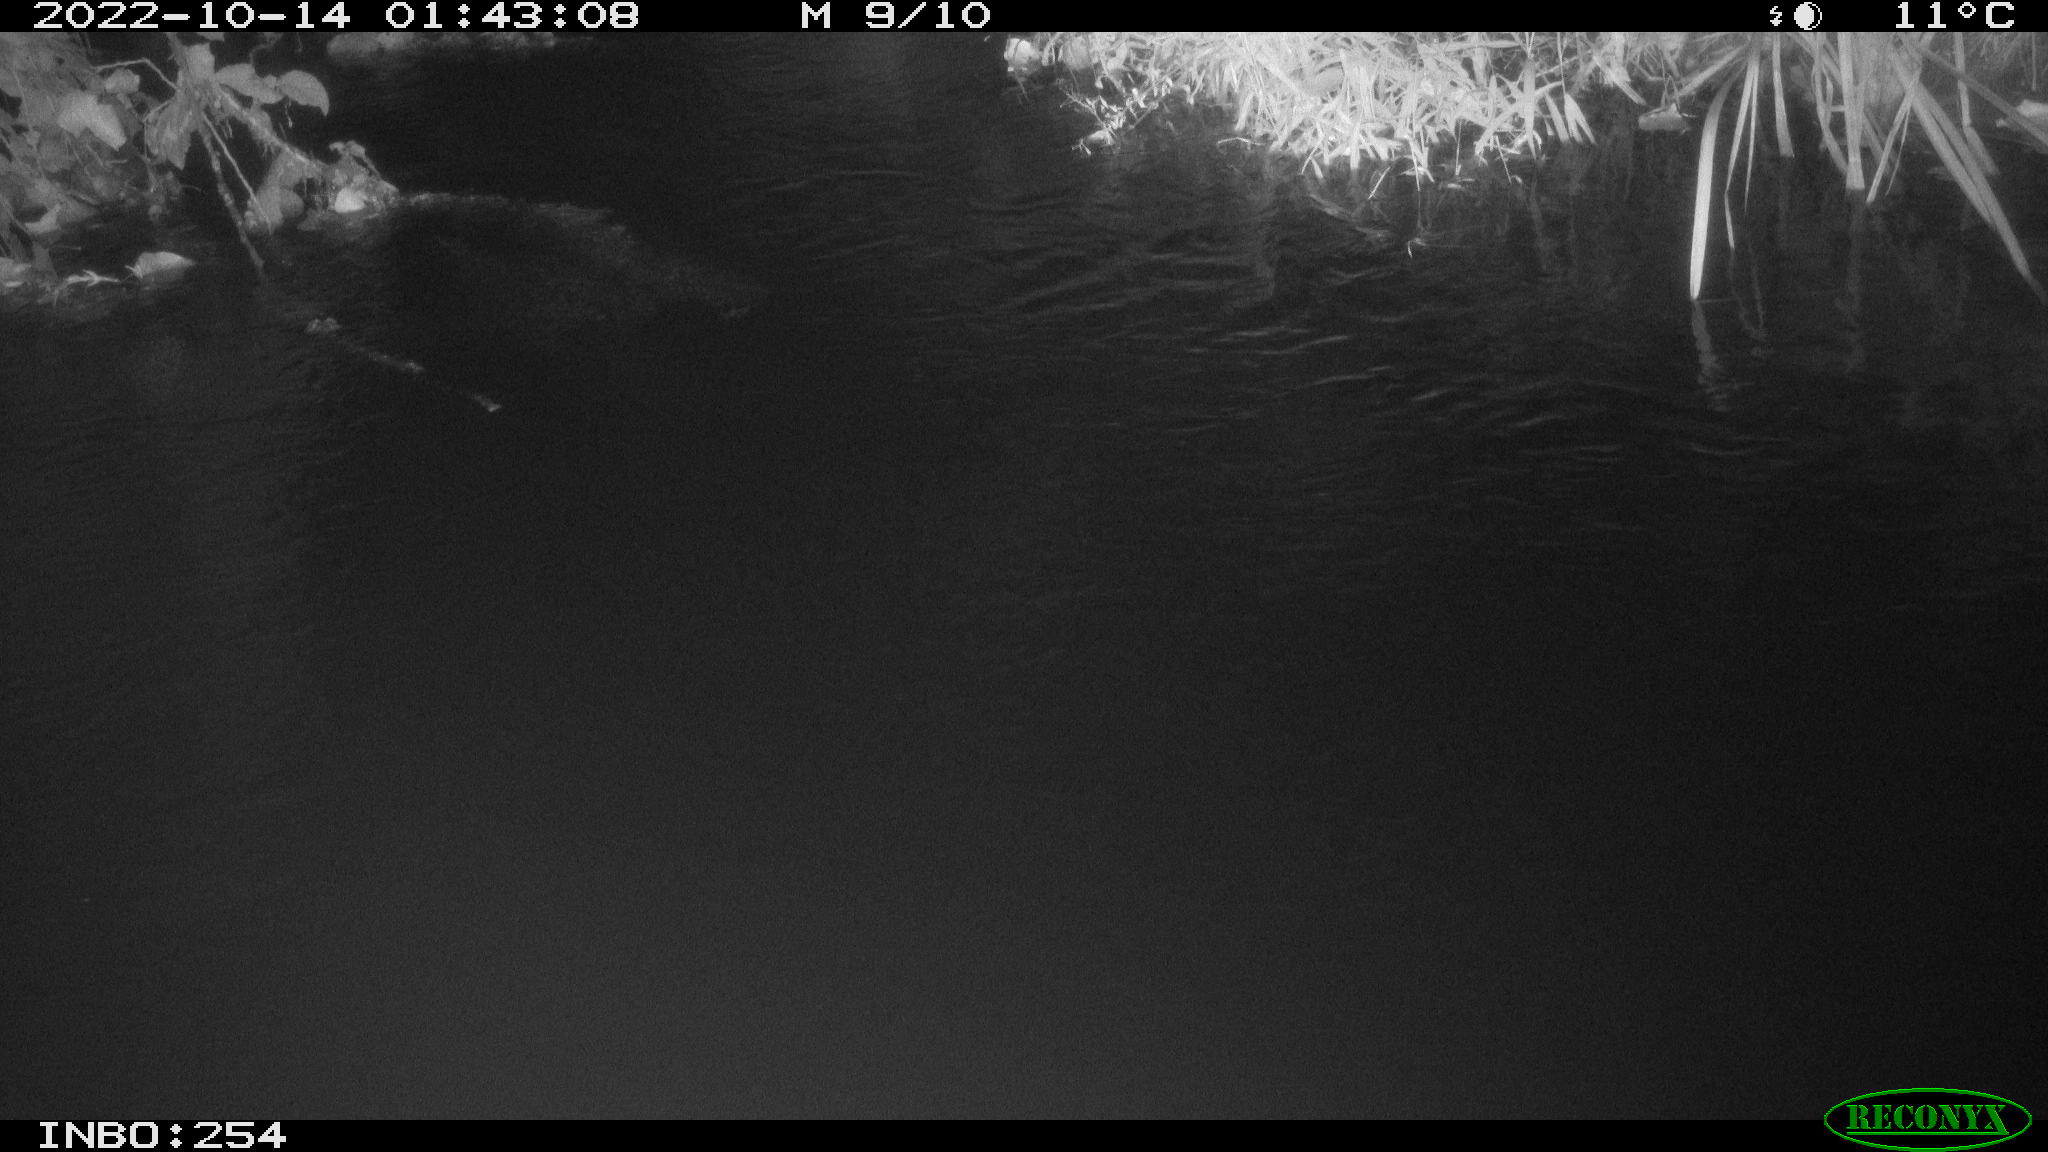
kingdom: Animalia
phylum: Chordata
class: Aves
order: Anseriformes
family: Anatidae
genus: Anas
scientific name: Anas
